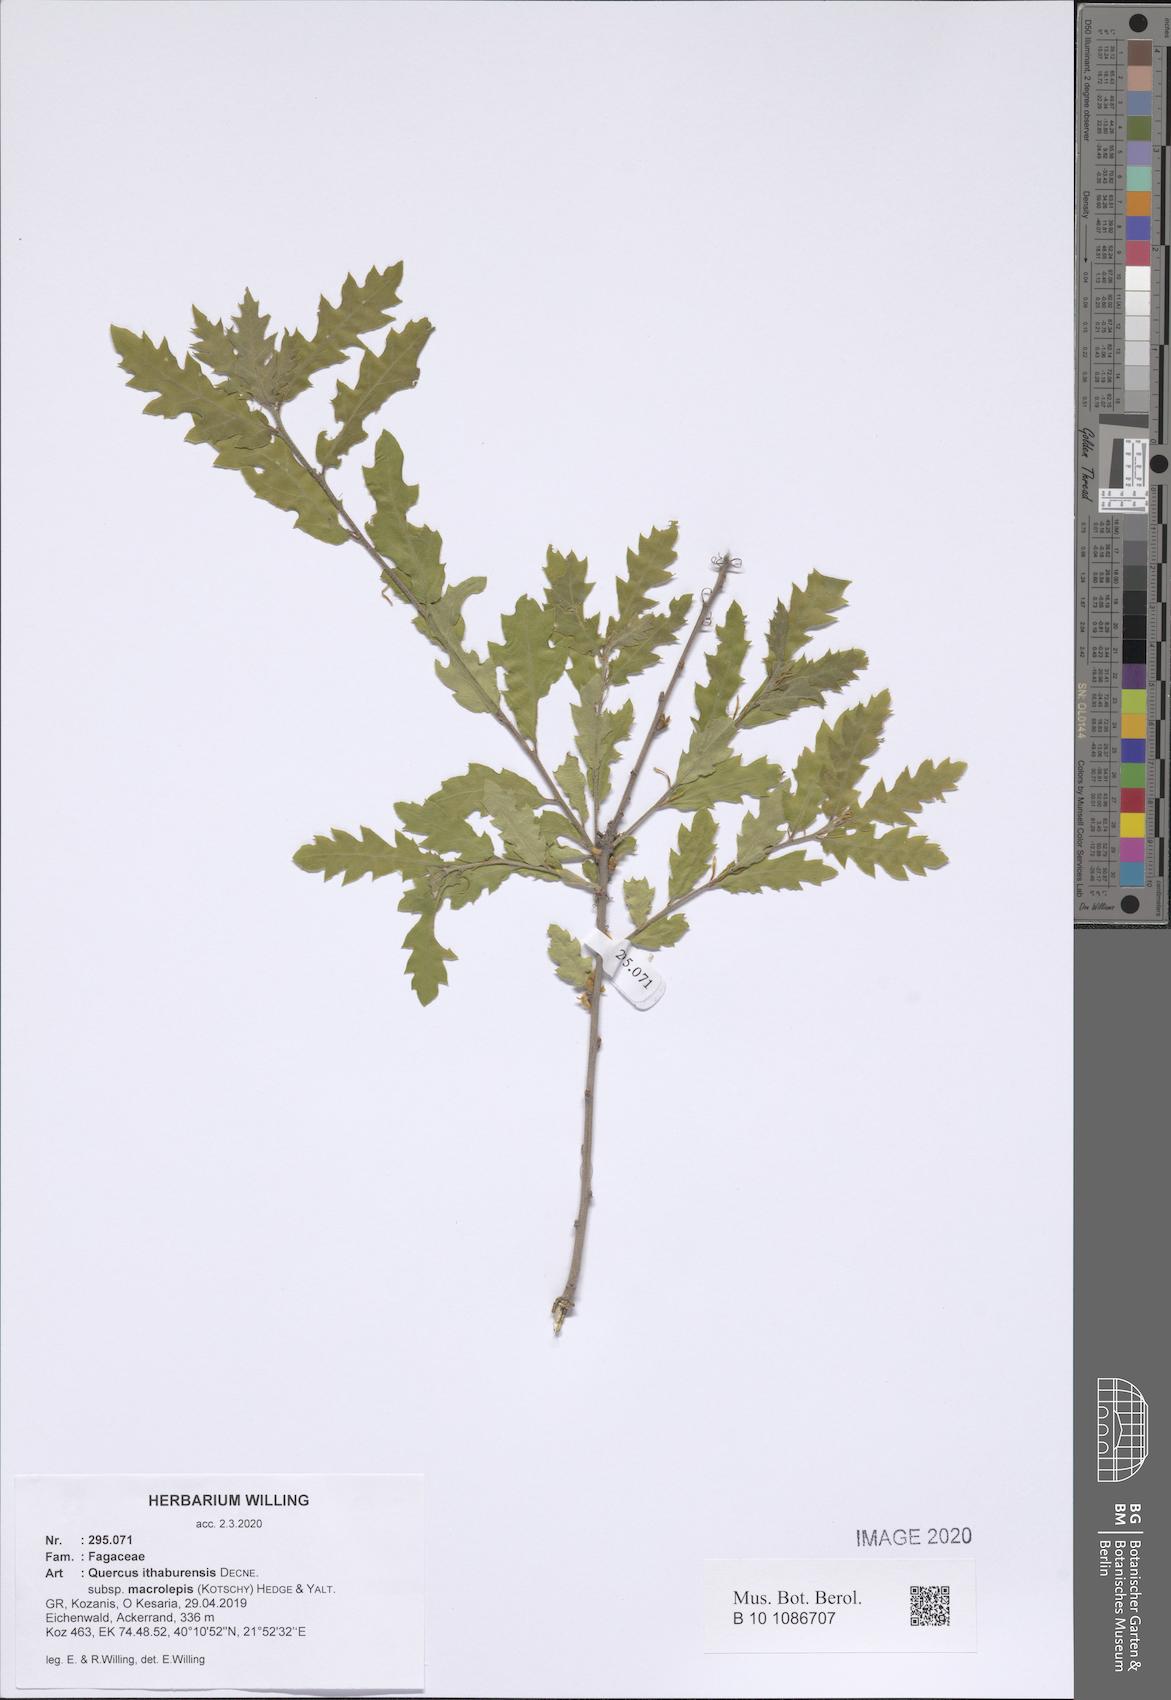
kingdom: Plantae
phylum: Tracheophyta
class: Magnoliopsida
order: Fagales
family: Fagaceae
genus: Quercus
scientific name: Quercus ithaburensis
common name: Tabor oak
